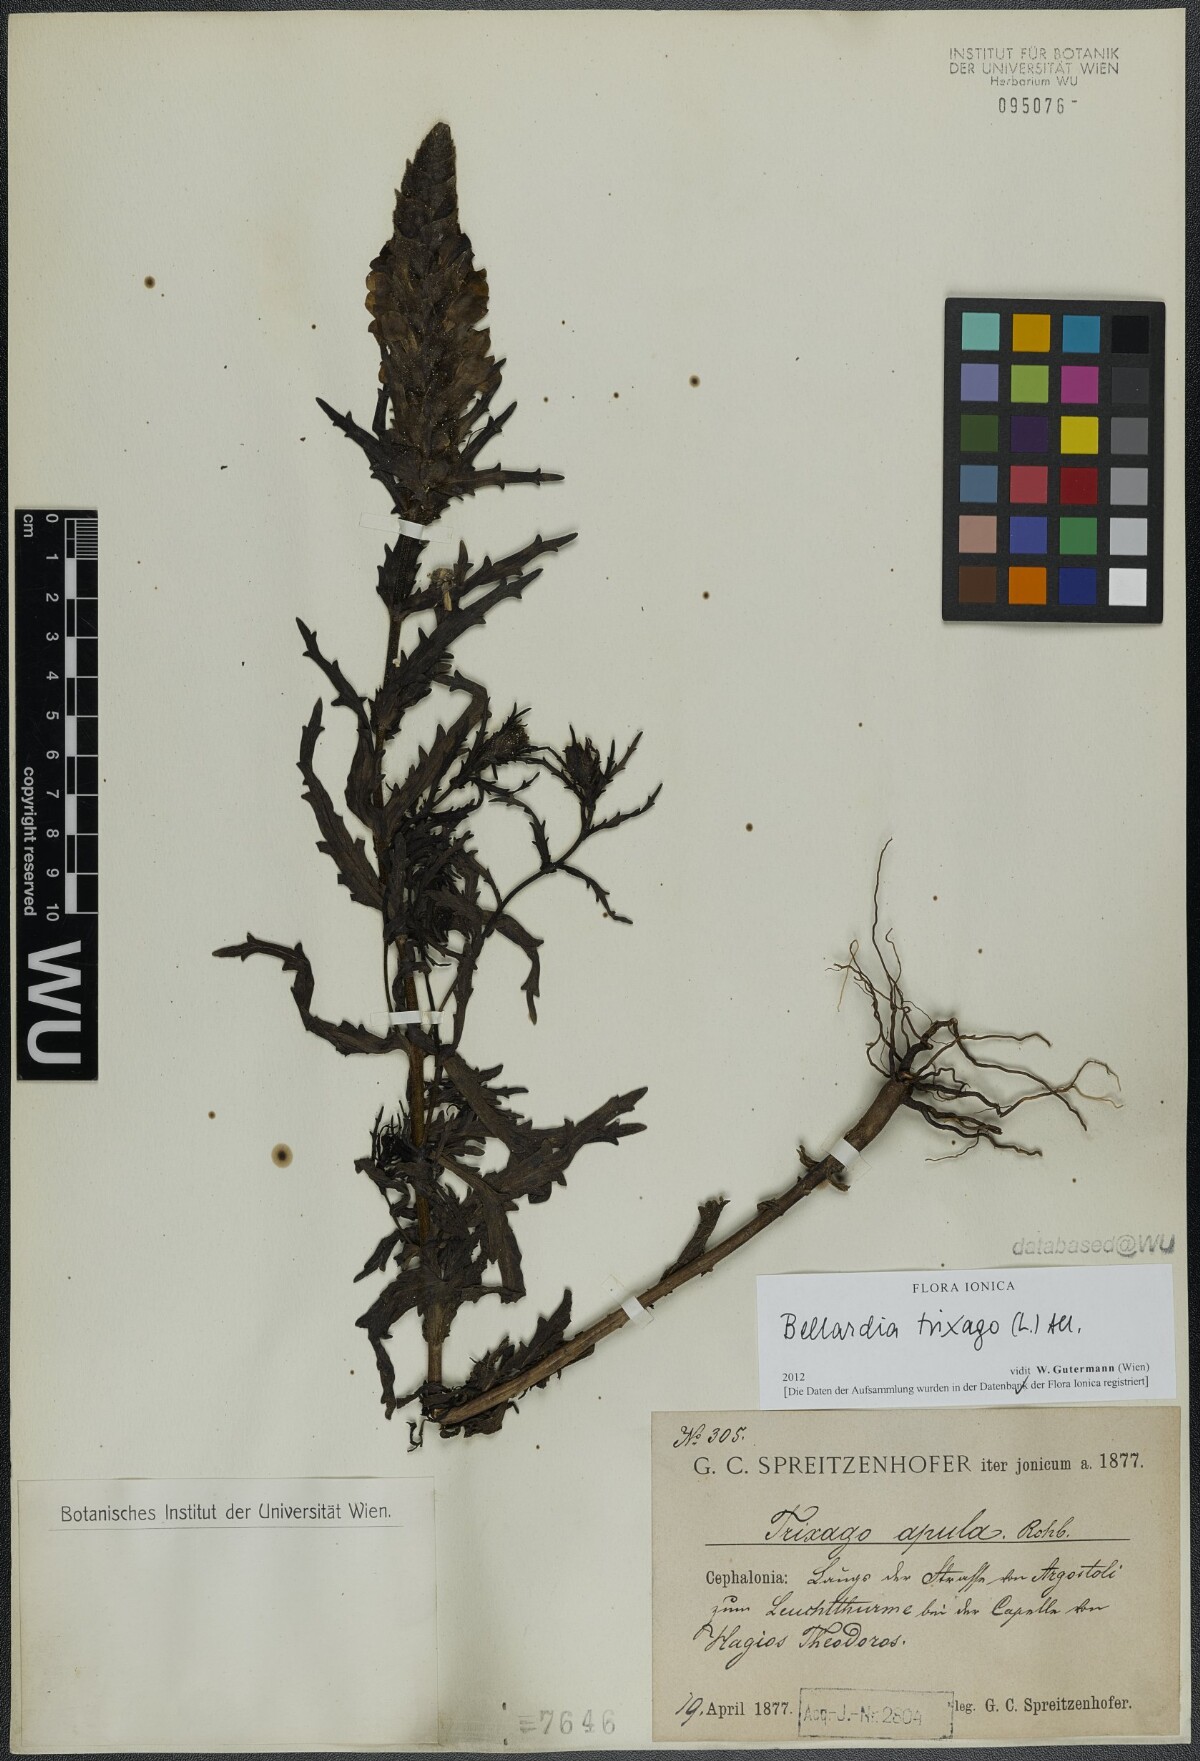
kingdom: Plantae
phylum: Tracheophyta
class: Magnoliopsida
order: Lamiales
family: Orobanchaceae
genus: Bellardia
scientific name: Bellardia trixago
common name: Mediterranean lineseed
